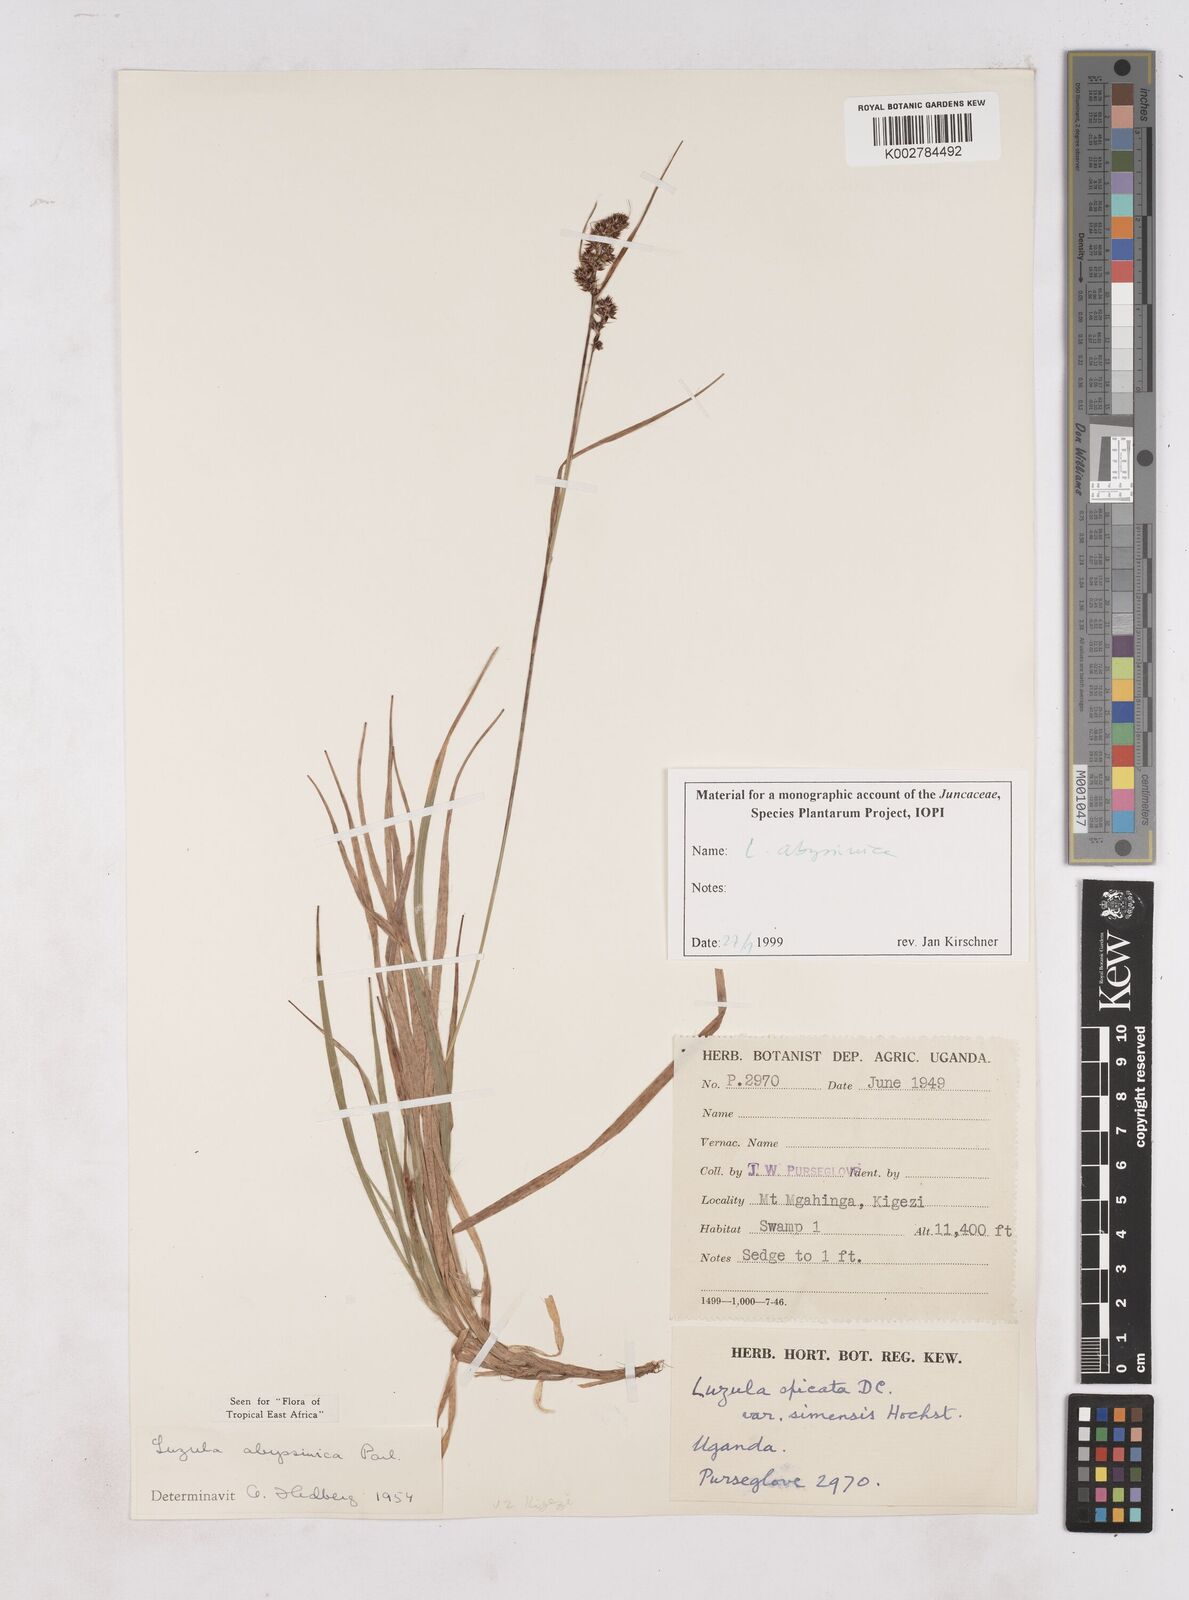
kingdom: Plantae
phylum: Tracheophyta
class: Liliopsida
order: Poales
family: Juncaceae
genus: Luzula
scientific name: Luzula abyssinica
